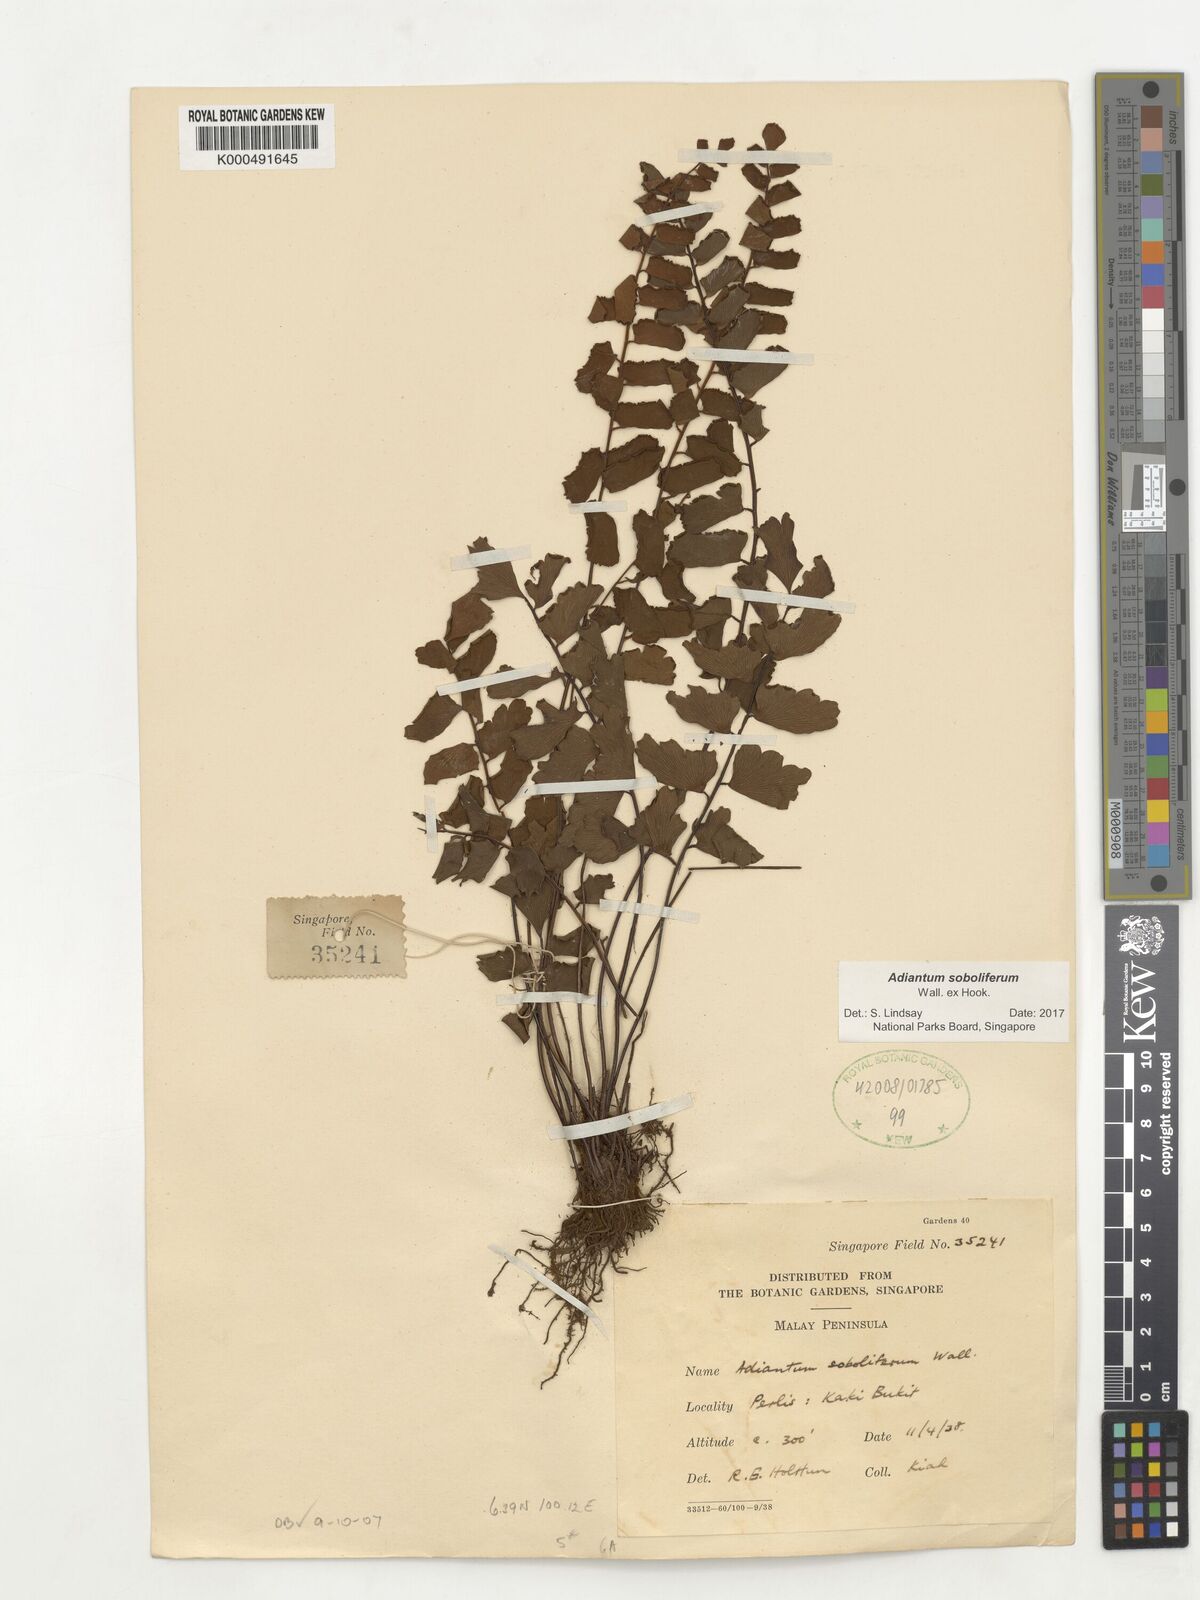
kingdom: Plantae
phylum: Tracheophyta
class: Polypodiopsida
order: Polypodiales
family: Pteridaceae
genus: Adiantum
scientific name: Adiantum soboliferum
